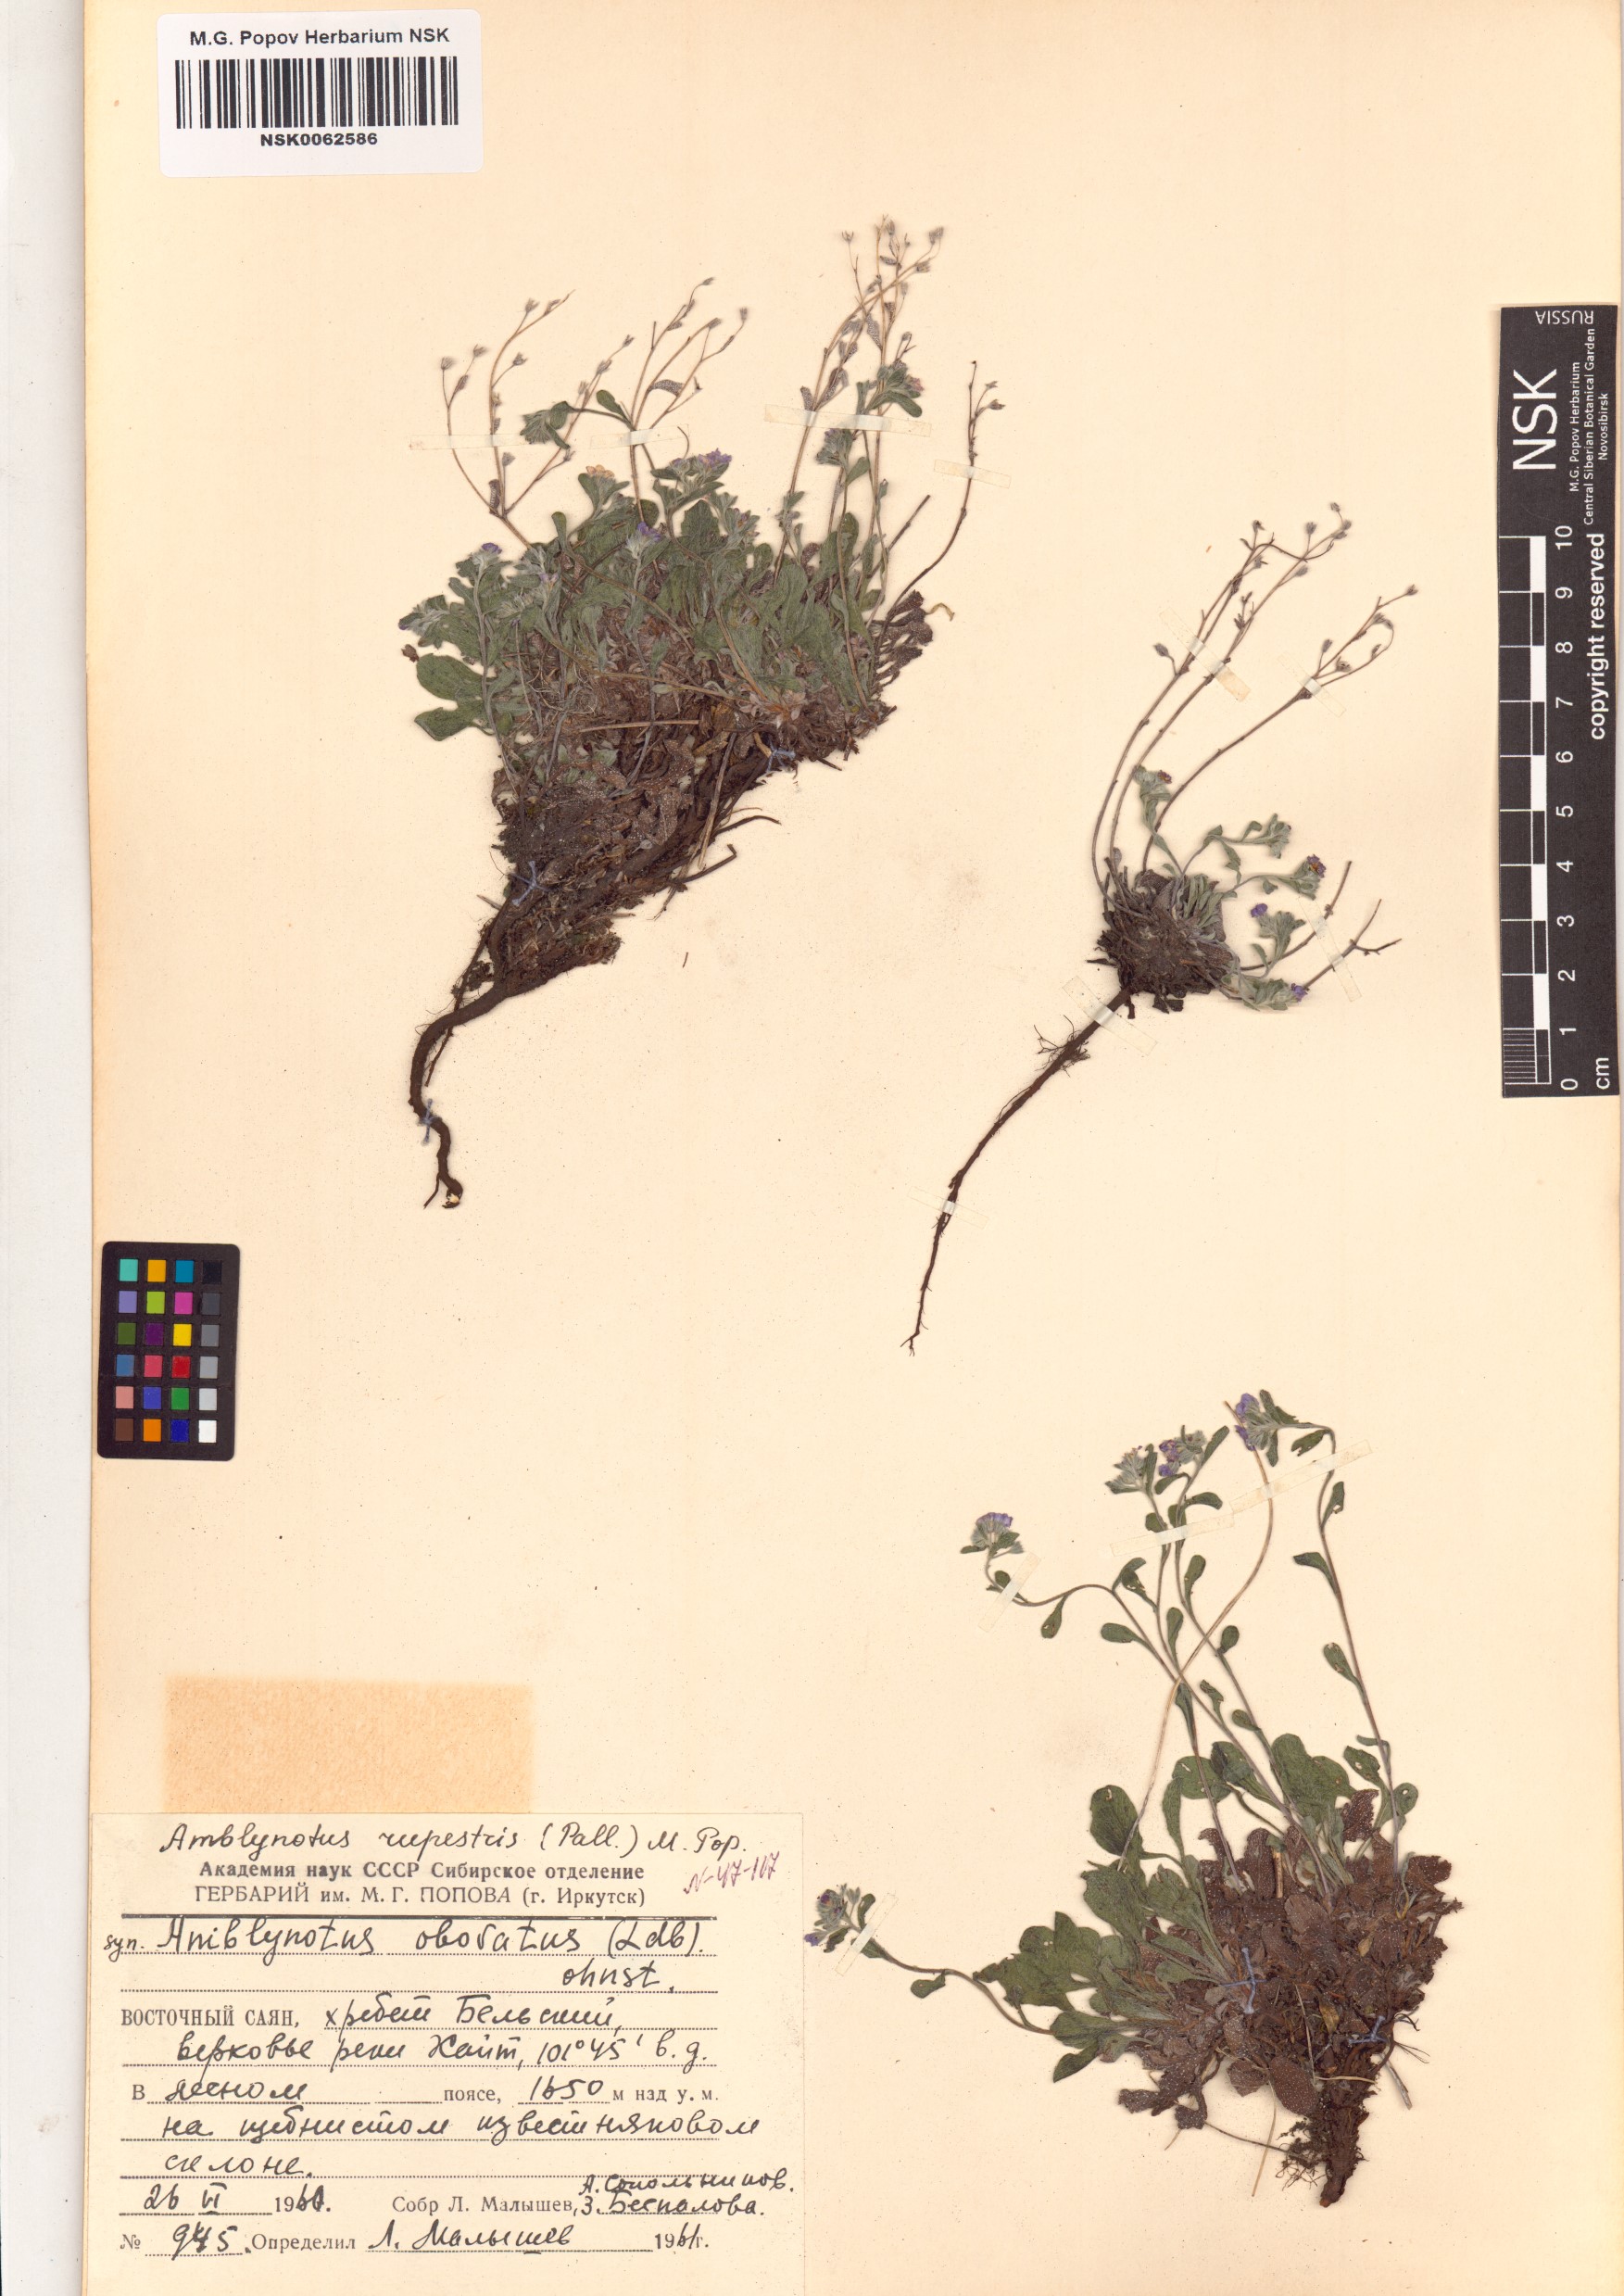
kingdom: Plantae
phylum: Tracheophyta
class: Magnoliopsida
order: Boraginales
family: Boraginaceae
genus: Eritrichium
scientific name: Eritrichium rupestre
